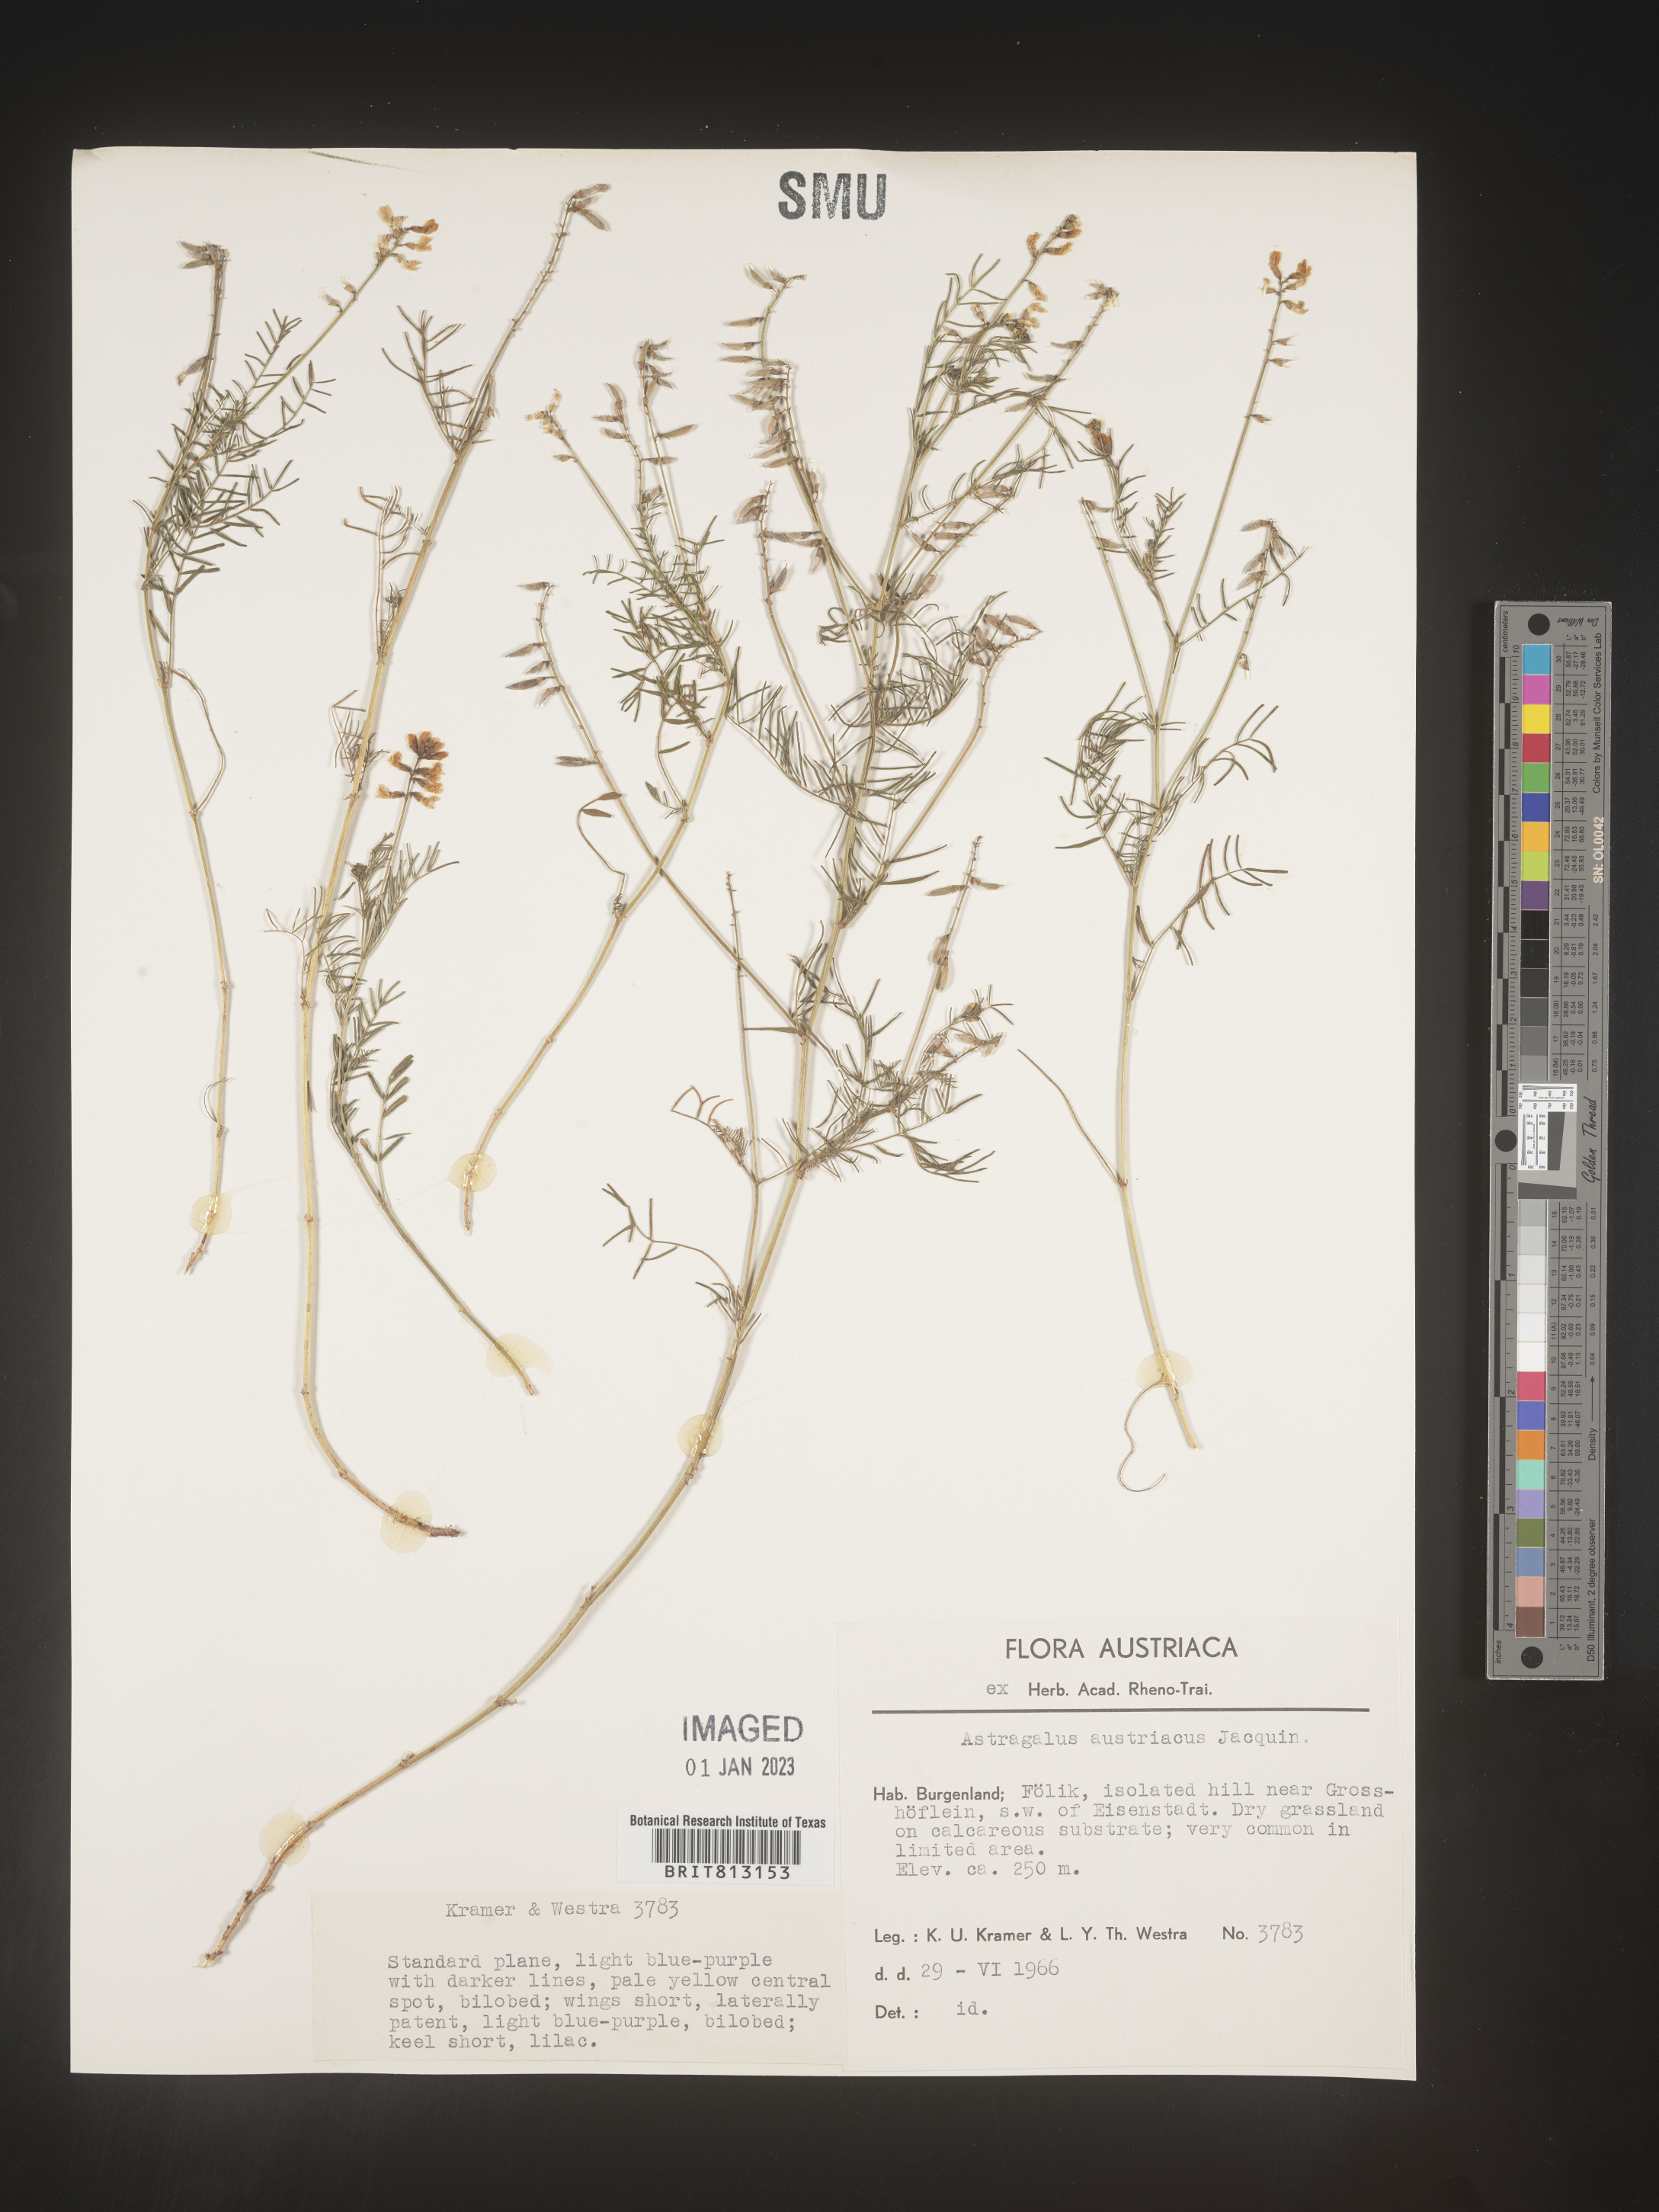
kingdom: Plantae
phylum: Tracheophyta
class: Magnoliopsida
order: Fabales
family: Fabaceae
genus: Astragalus
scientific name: Astragalus
